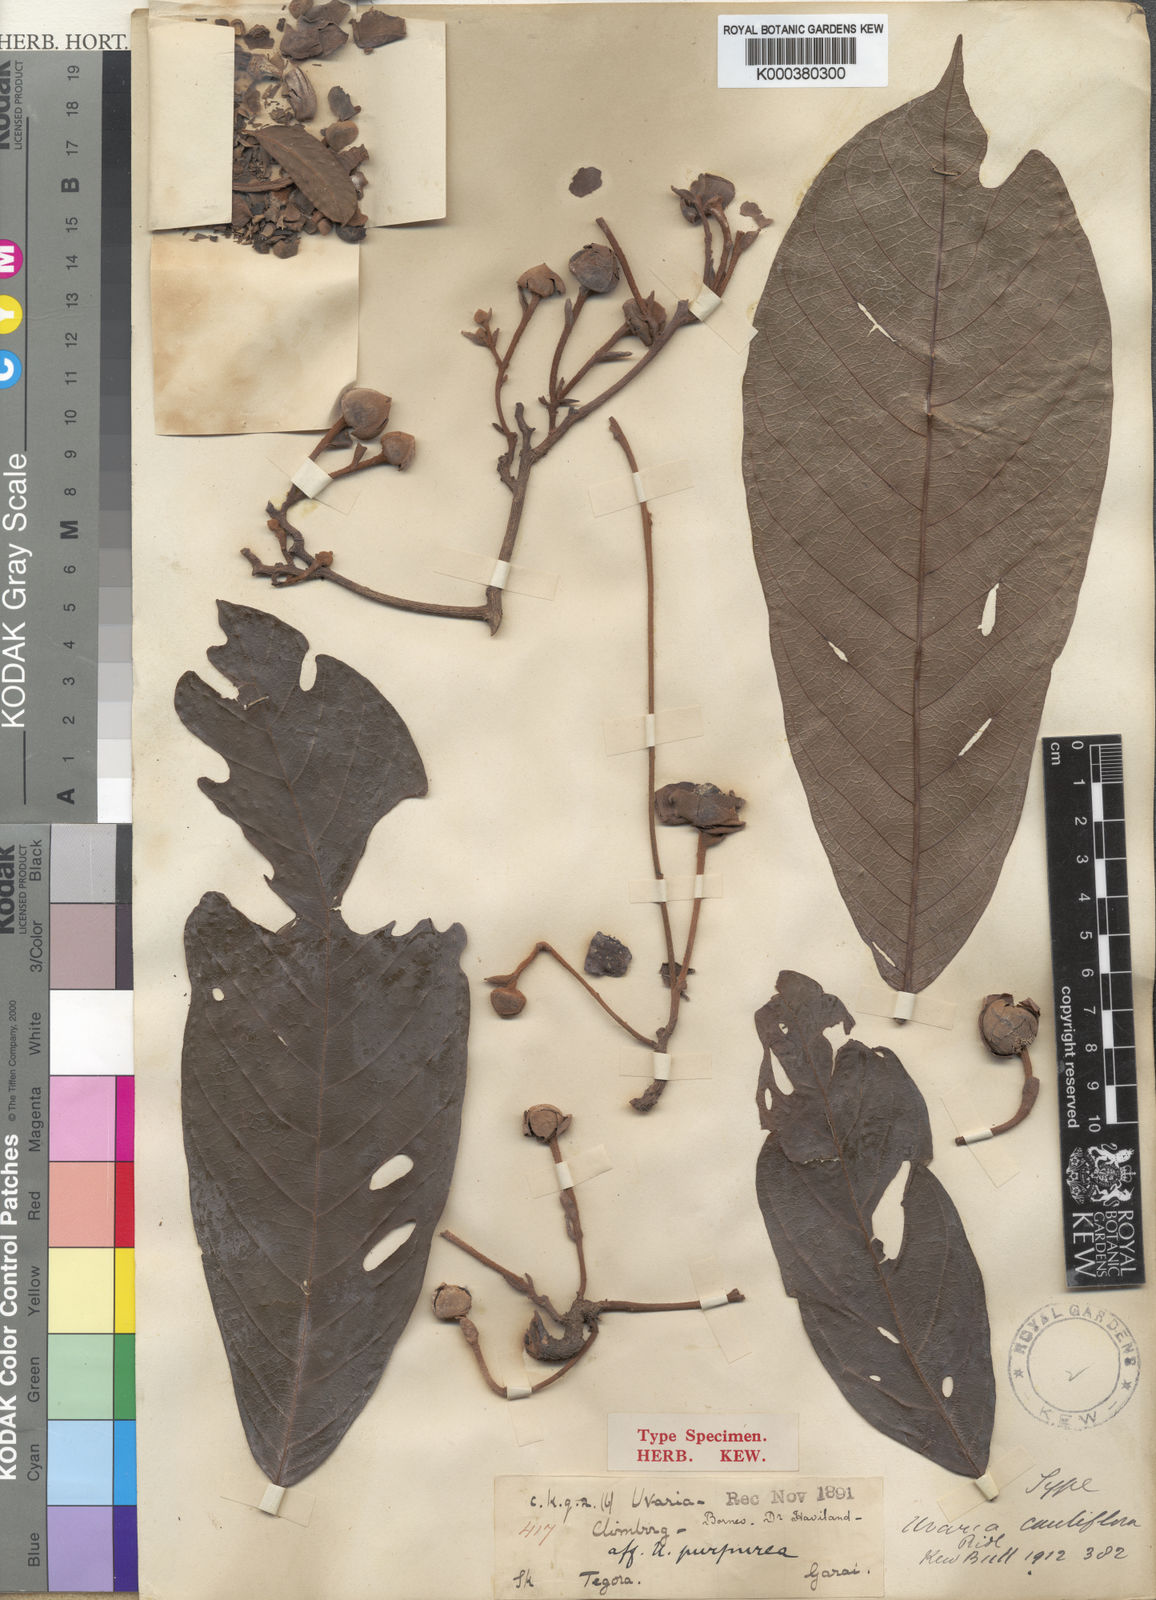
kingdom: Plantae
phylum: Tracheophyta
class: Magnoliopsida
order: Magnoliales
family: Annonaceae
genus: Uvaria
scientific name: Uvaria monticola
